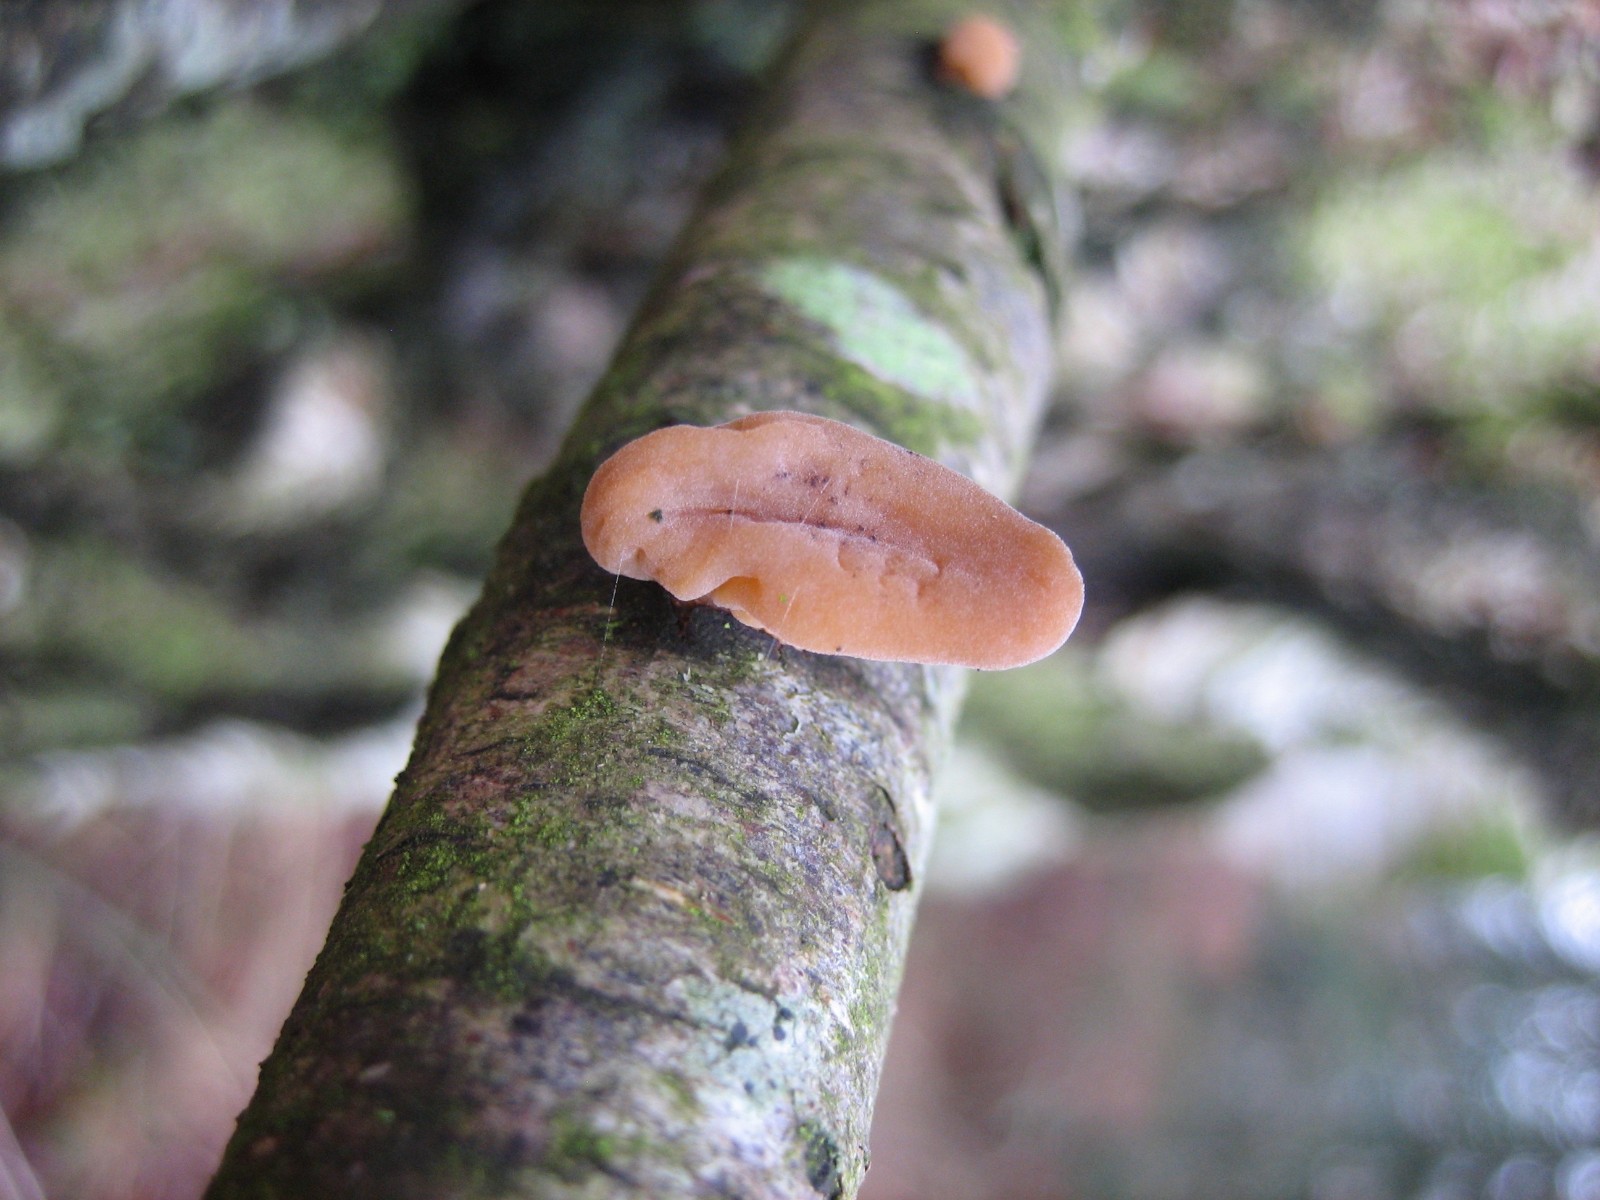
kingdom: Fungi
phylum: Basidiomycota
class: Agaricomycetes
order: Agaricales
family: Typhulaceae
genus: Typhula
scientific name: Typhula contorta
